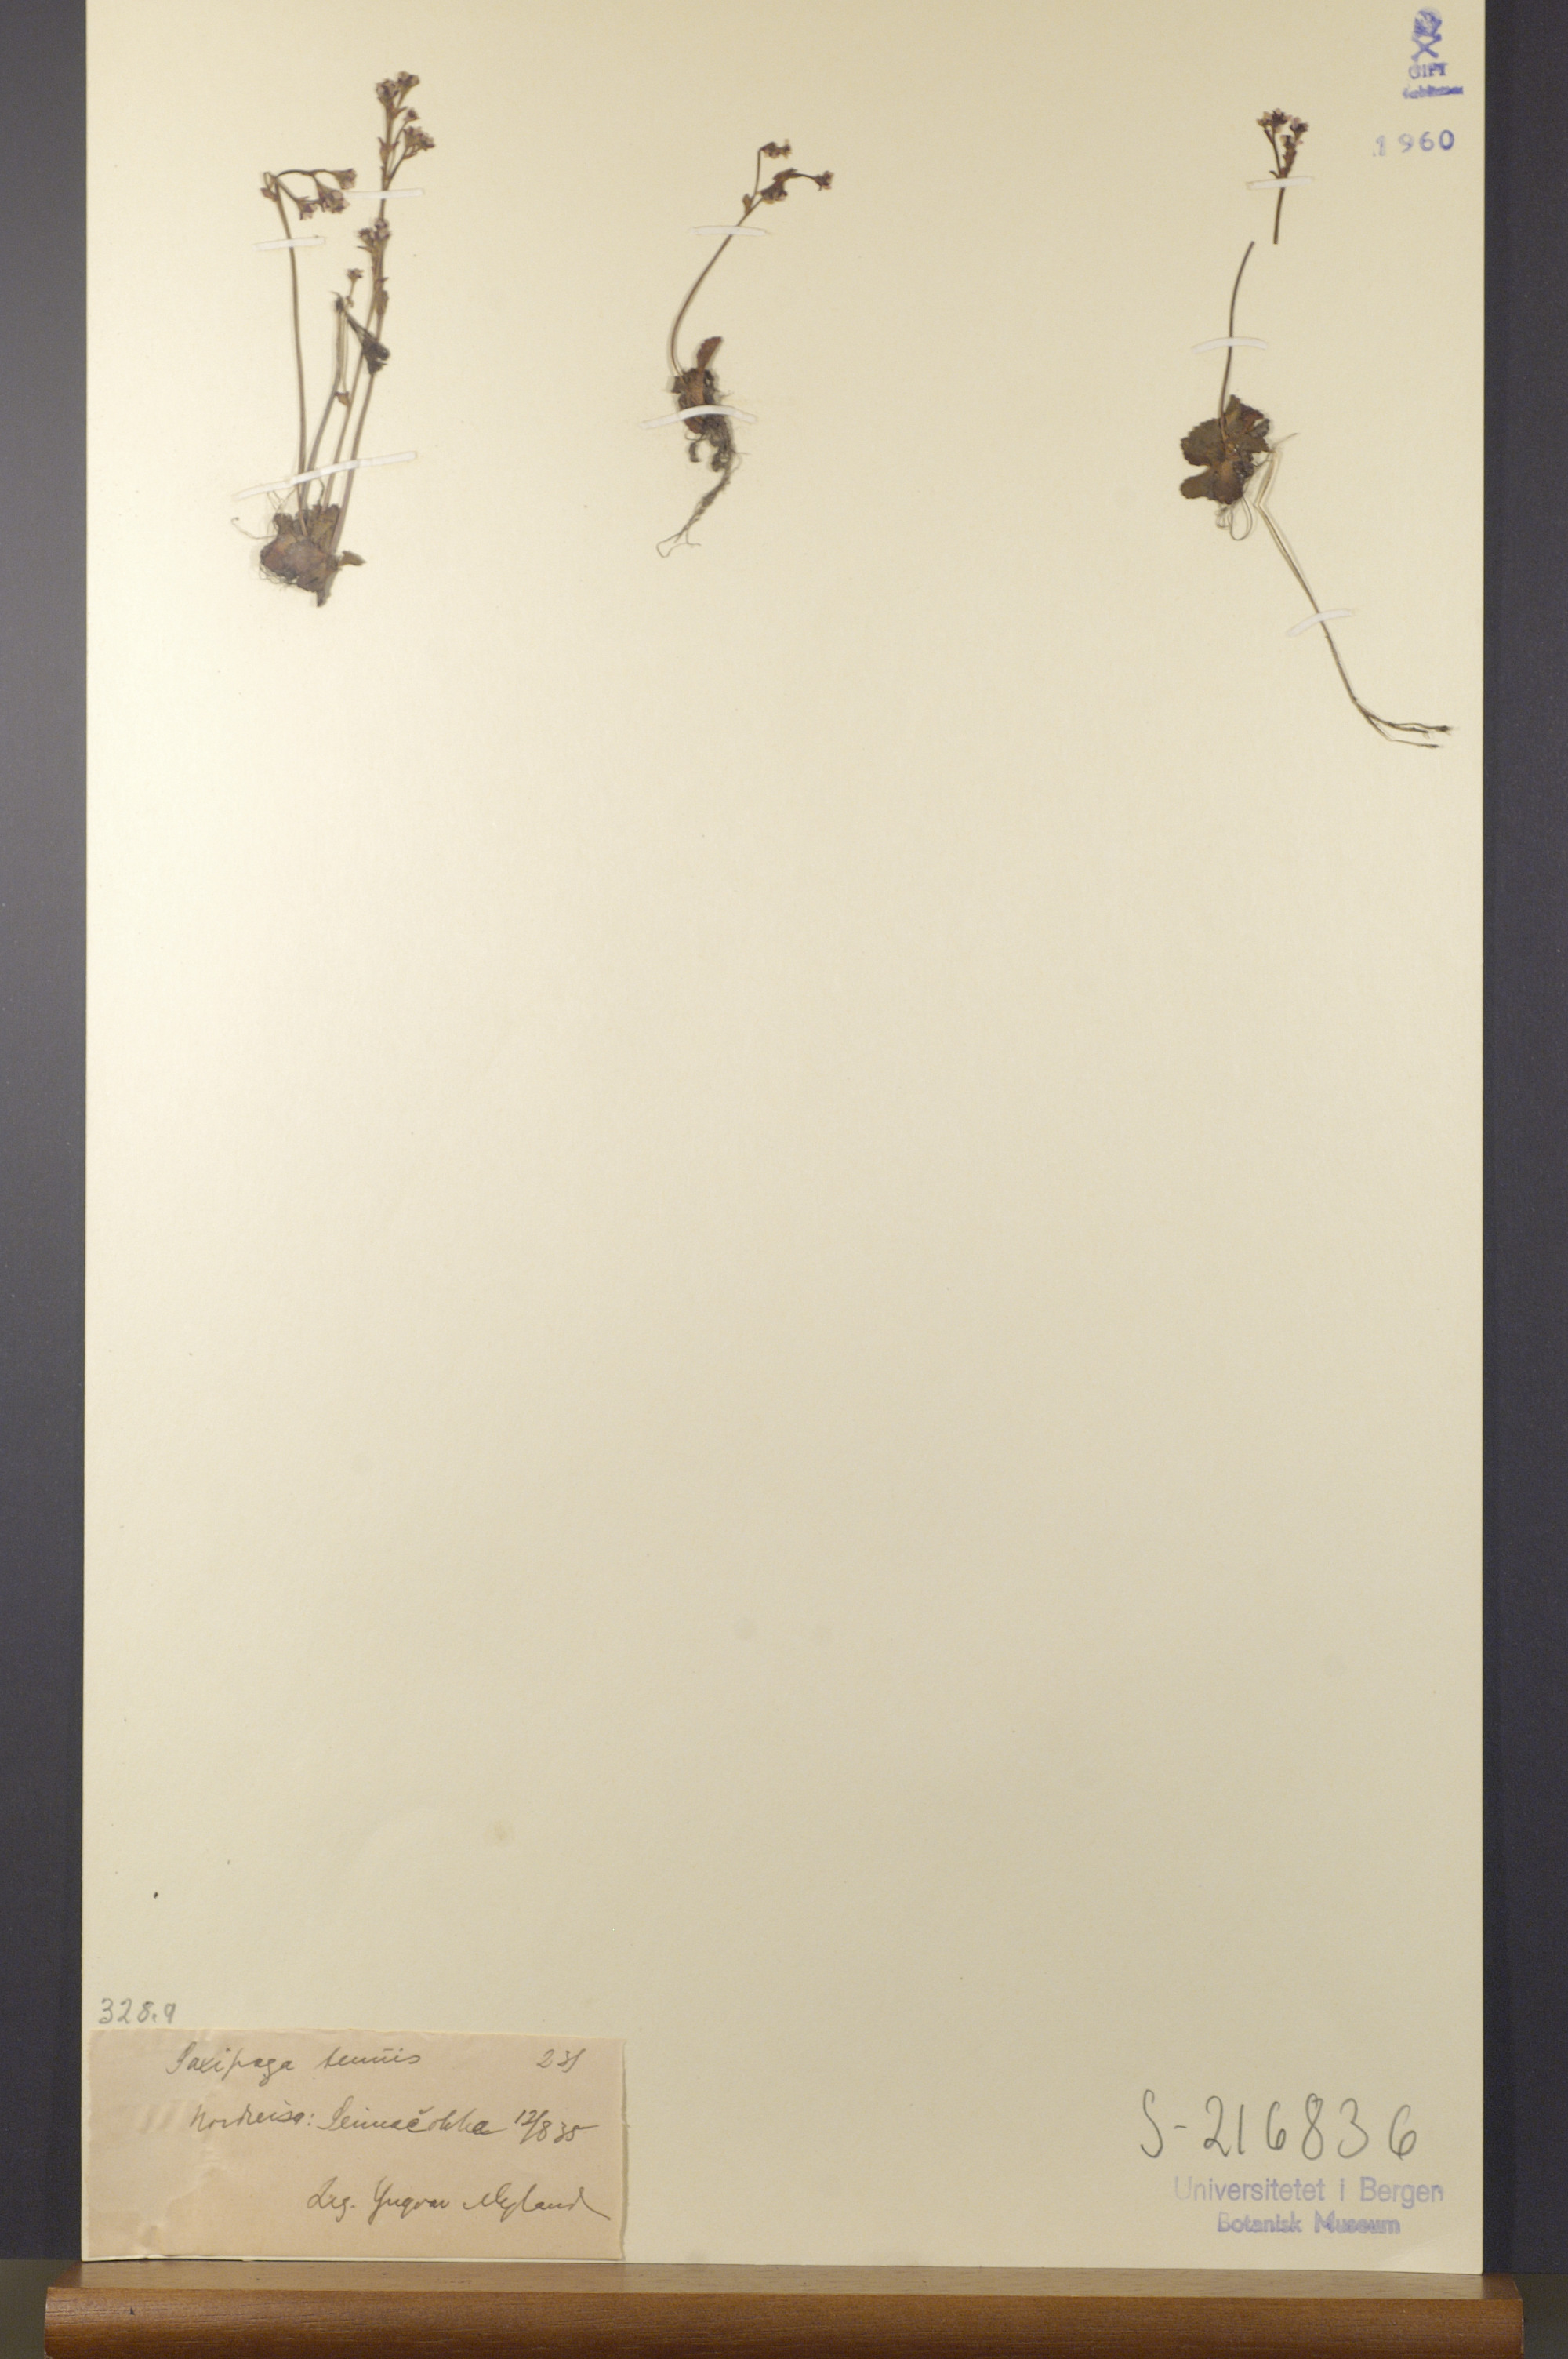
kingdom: Plantae
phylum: Tracheophyta
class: Magnoliopsida
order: Saxifragales
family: Saxifragaceae
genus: Micranthes
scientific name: Micranthes tenuis
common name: Ottertail pass saxifrage
